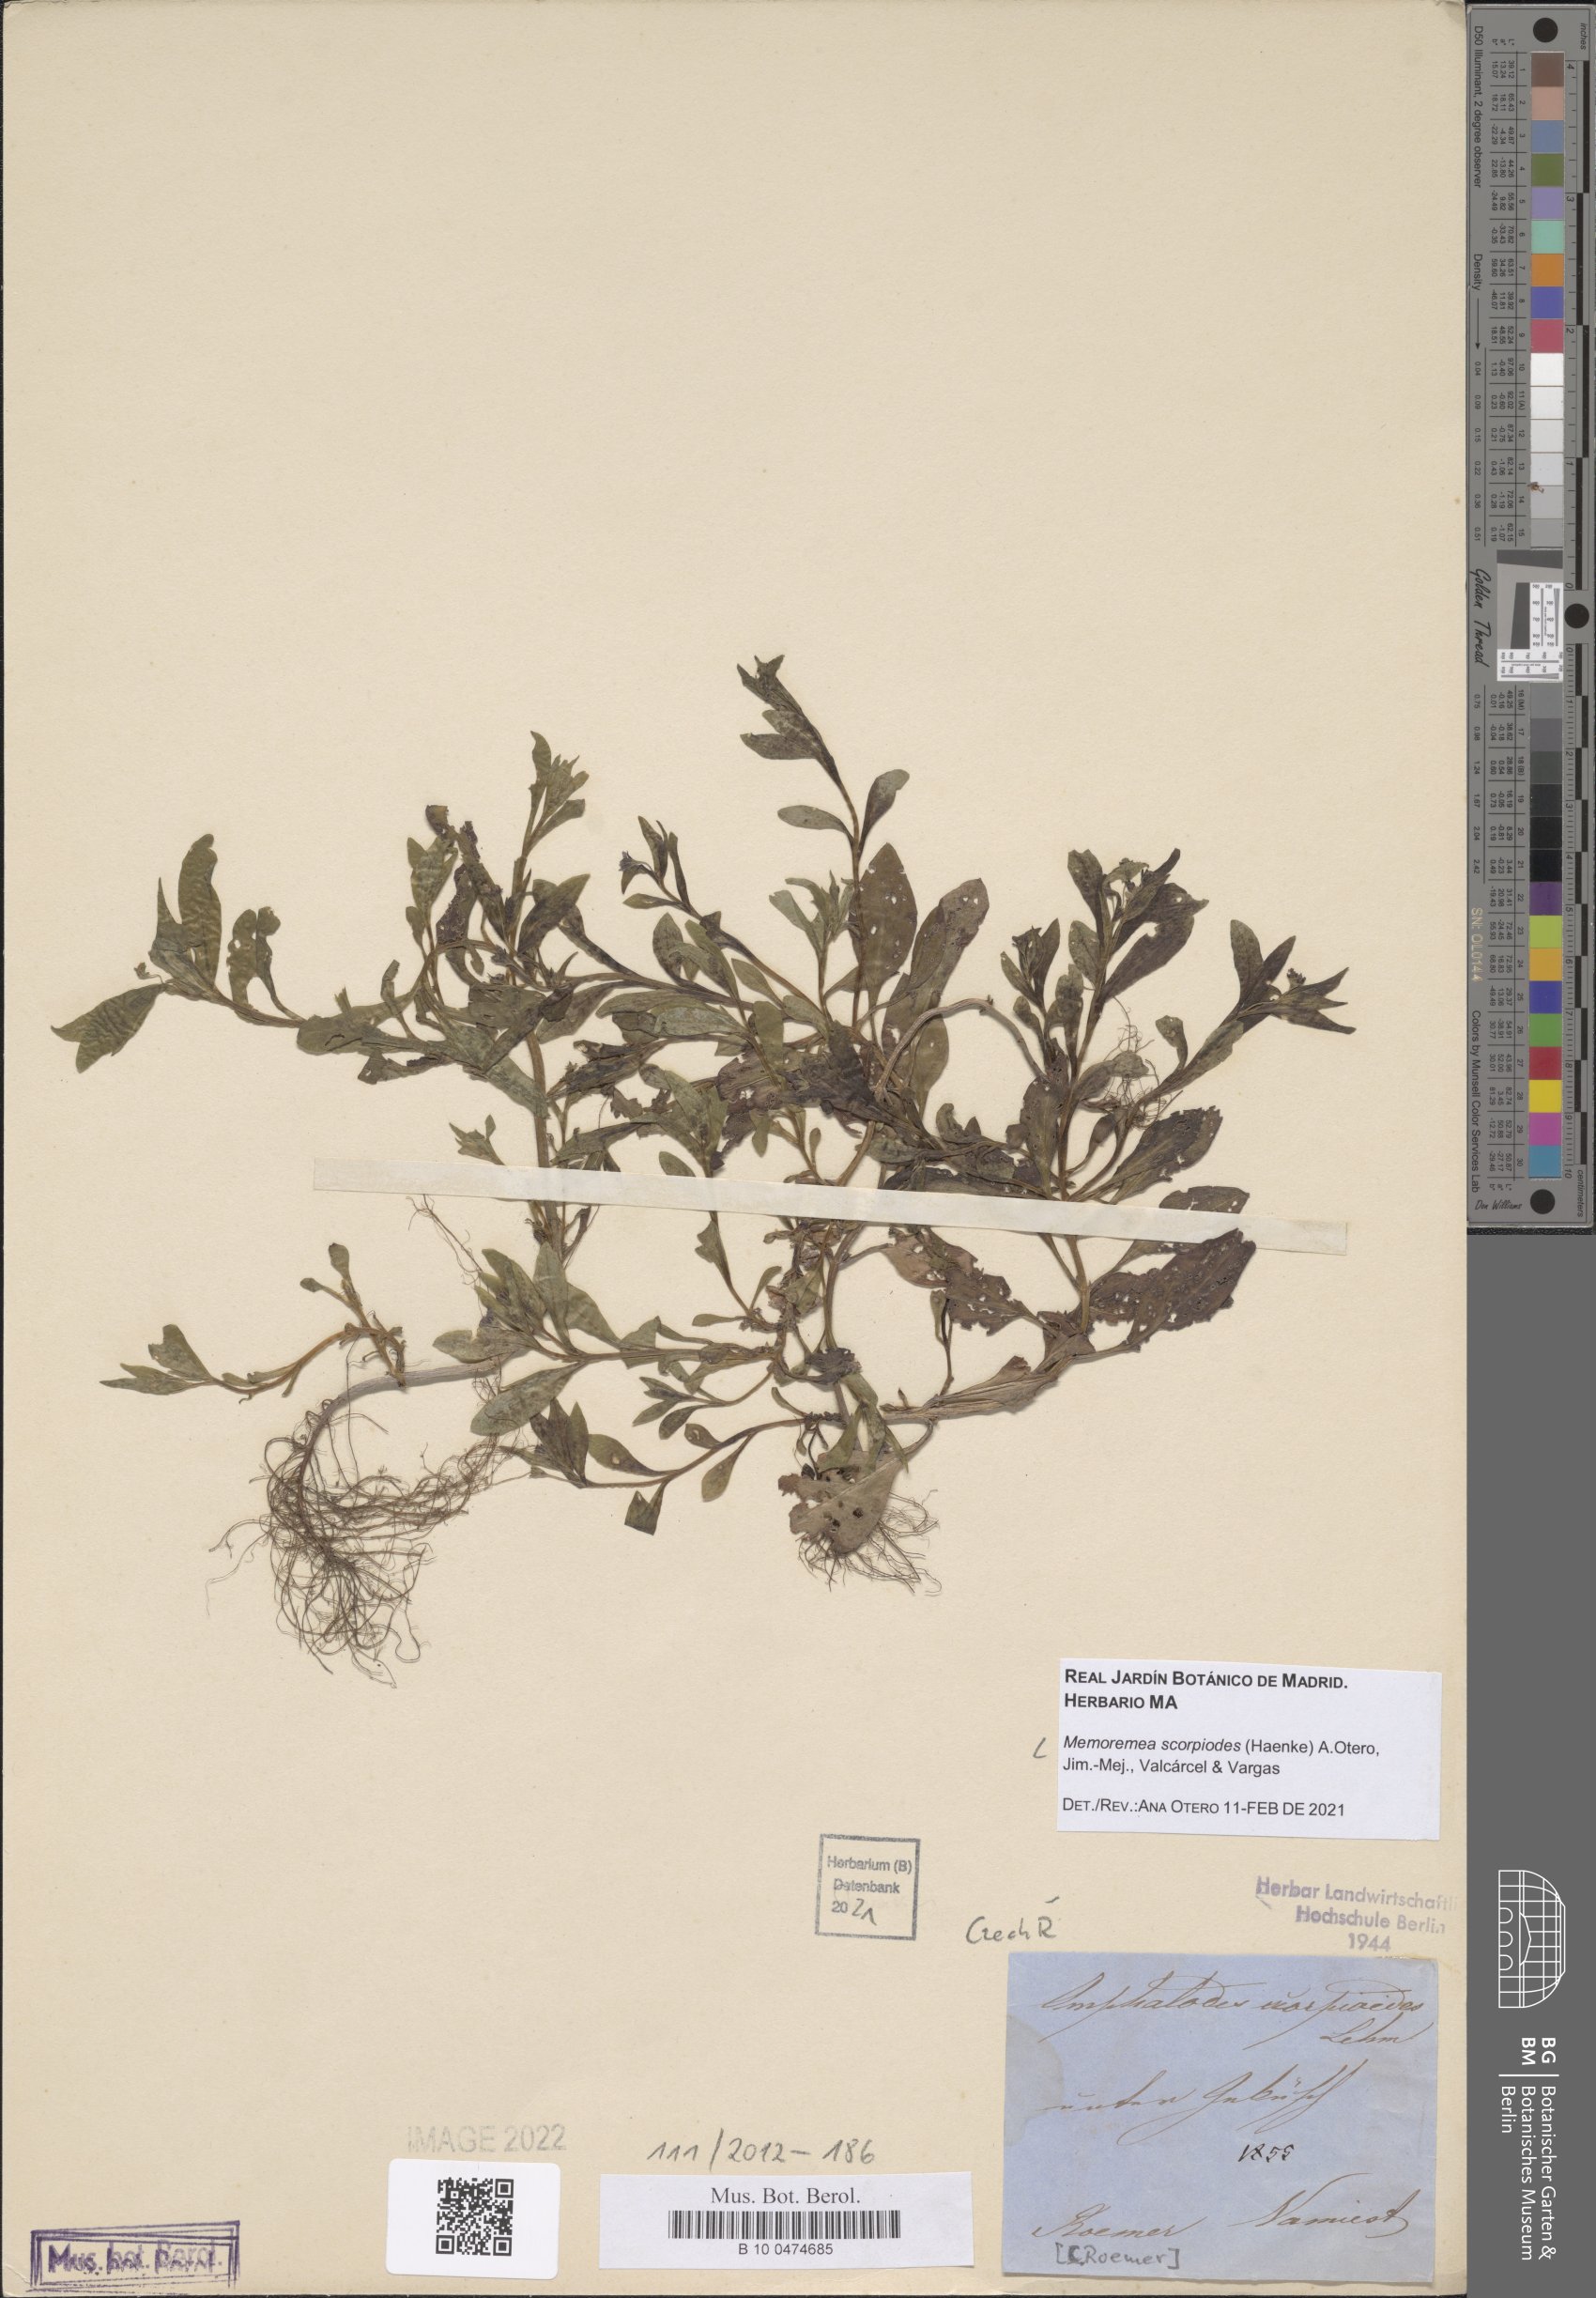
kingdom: Plantae
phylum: Tracheophyta
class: Magnoliopsida
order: Boraginales
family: Boraginaceae
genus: Memoremea
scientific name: Memoremea scorpioides
